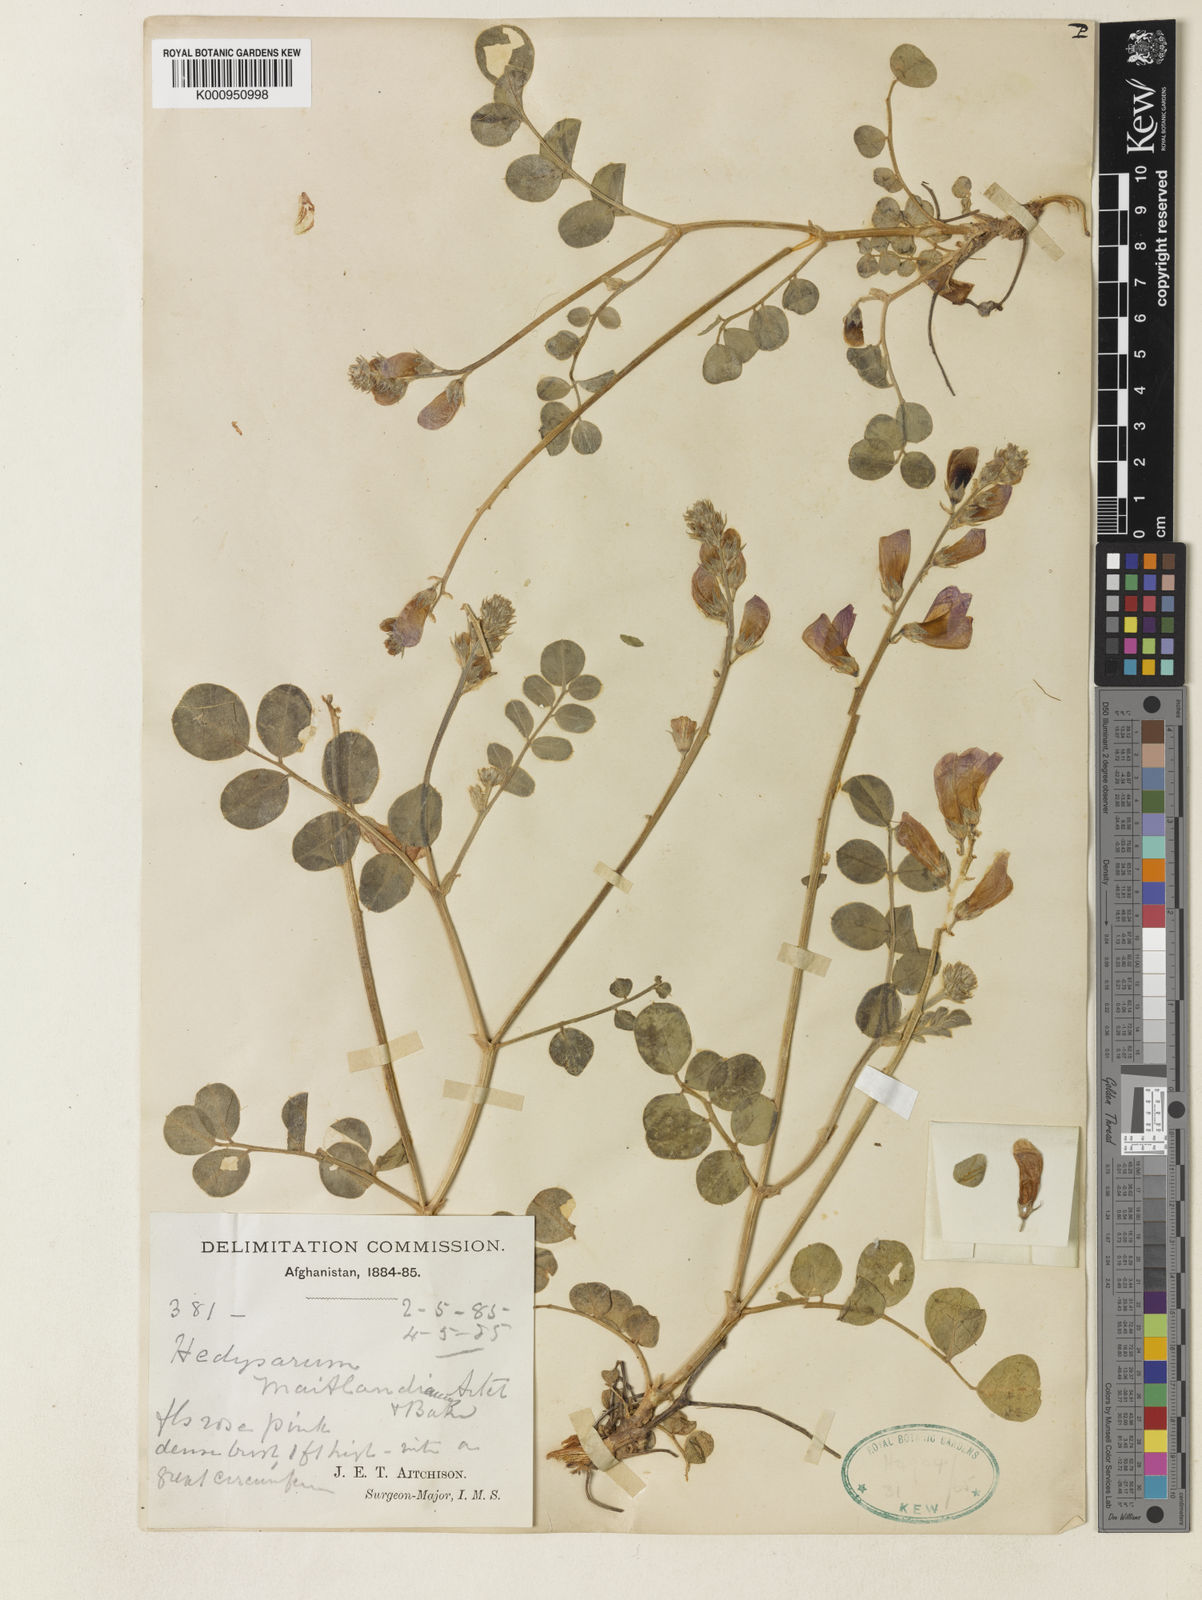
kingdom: Plantae
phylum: Tracheophyta
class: Magnoliopsida
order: Fabales
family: Fabaceae
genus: Hedysarum
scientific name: Hedysarum maitlandianum
